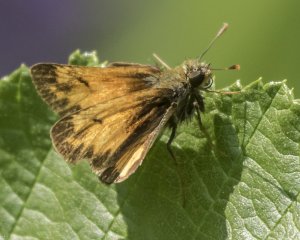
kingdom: Animalia
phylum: Arthropoda
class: Insecta
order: Lepidoptera
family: Hesperiidae
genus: Lon
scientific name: Lon hobomok
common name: Hobomok Skipper
